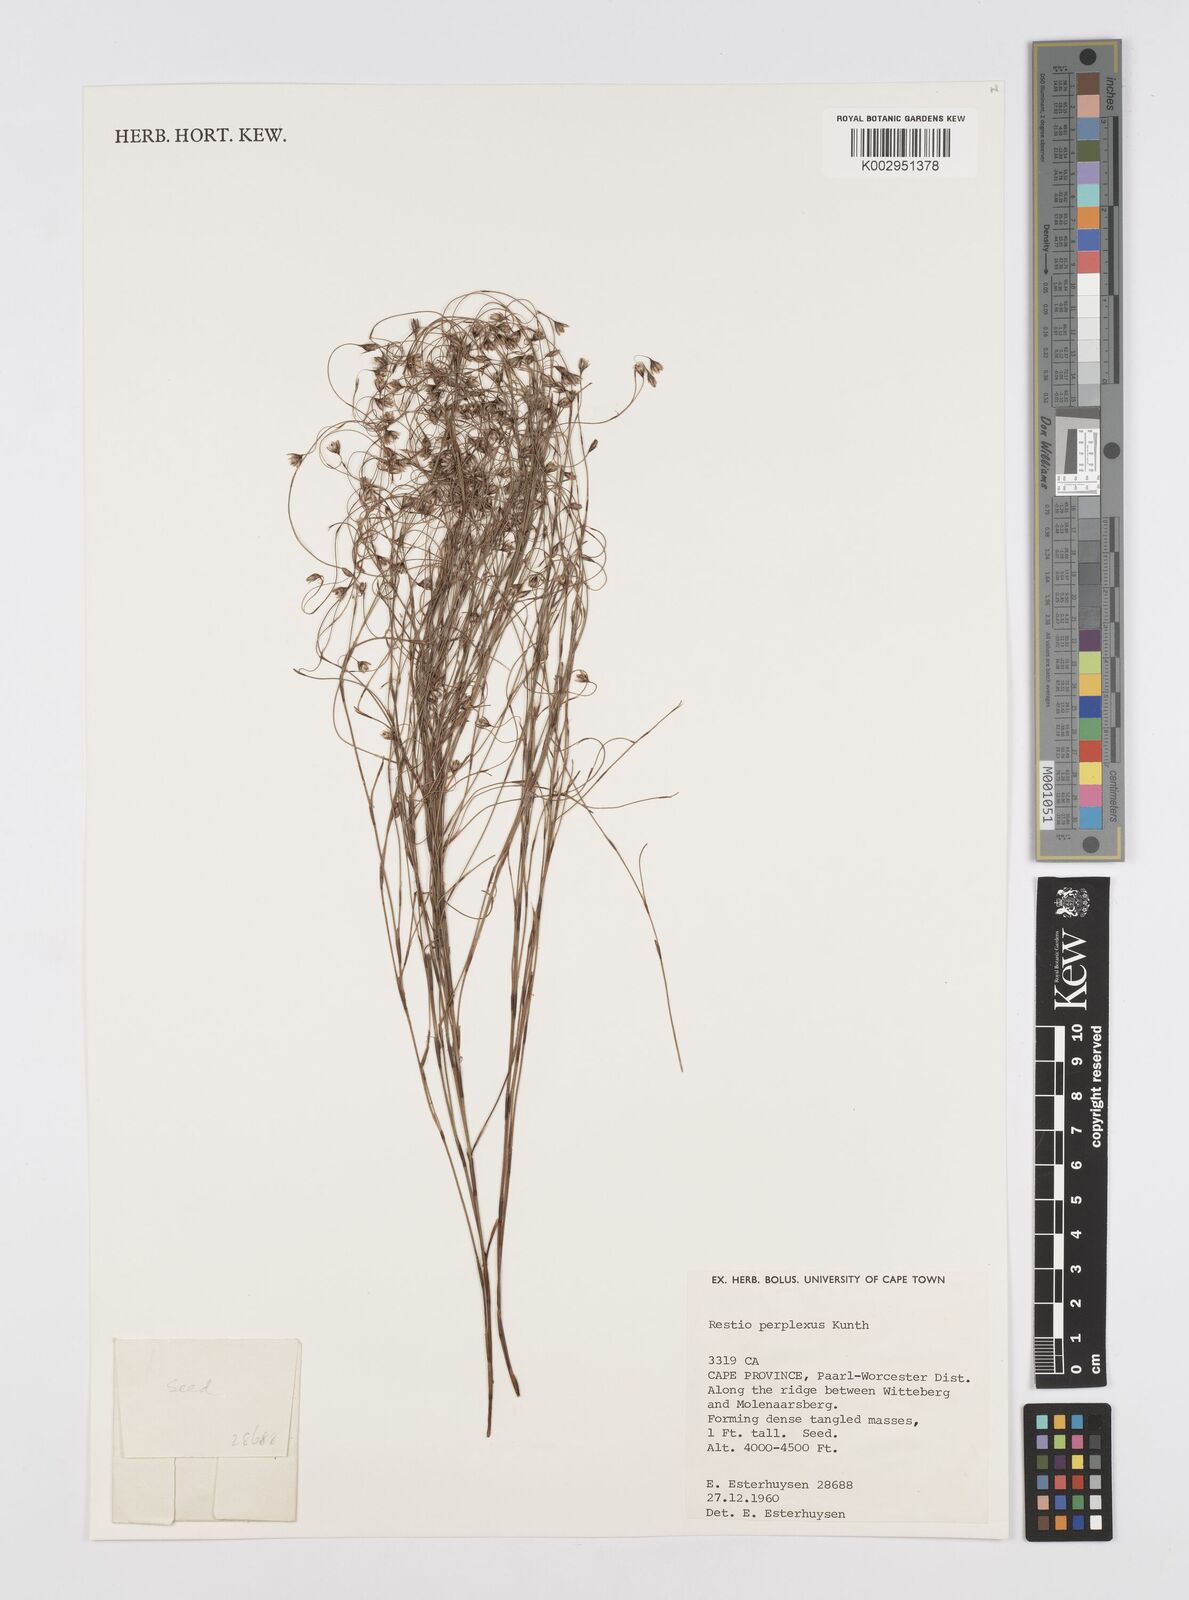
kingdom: Plantae
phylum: Tracheophyta
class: Liliopsida
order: Poales
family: Restionaceae
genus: Restio
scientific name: Restio perplexus
